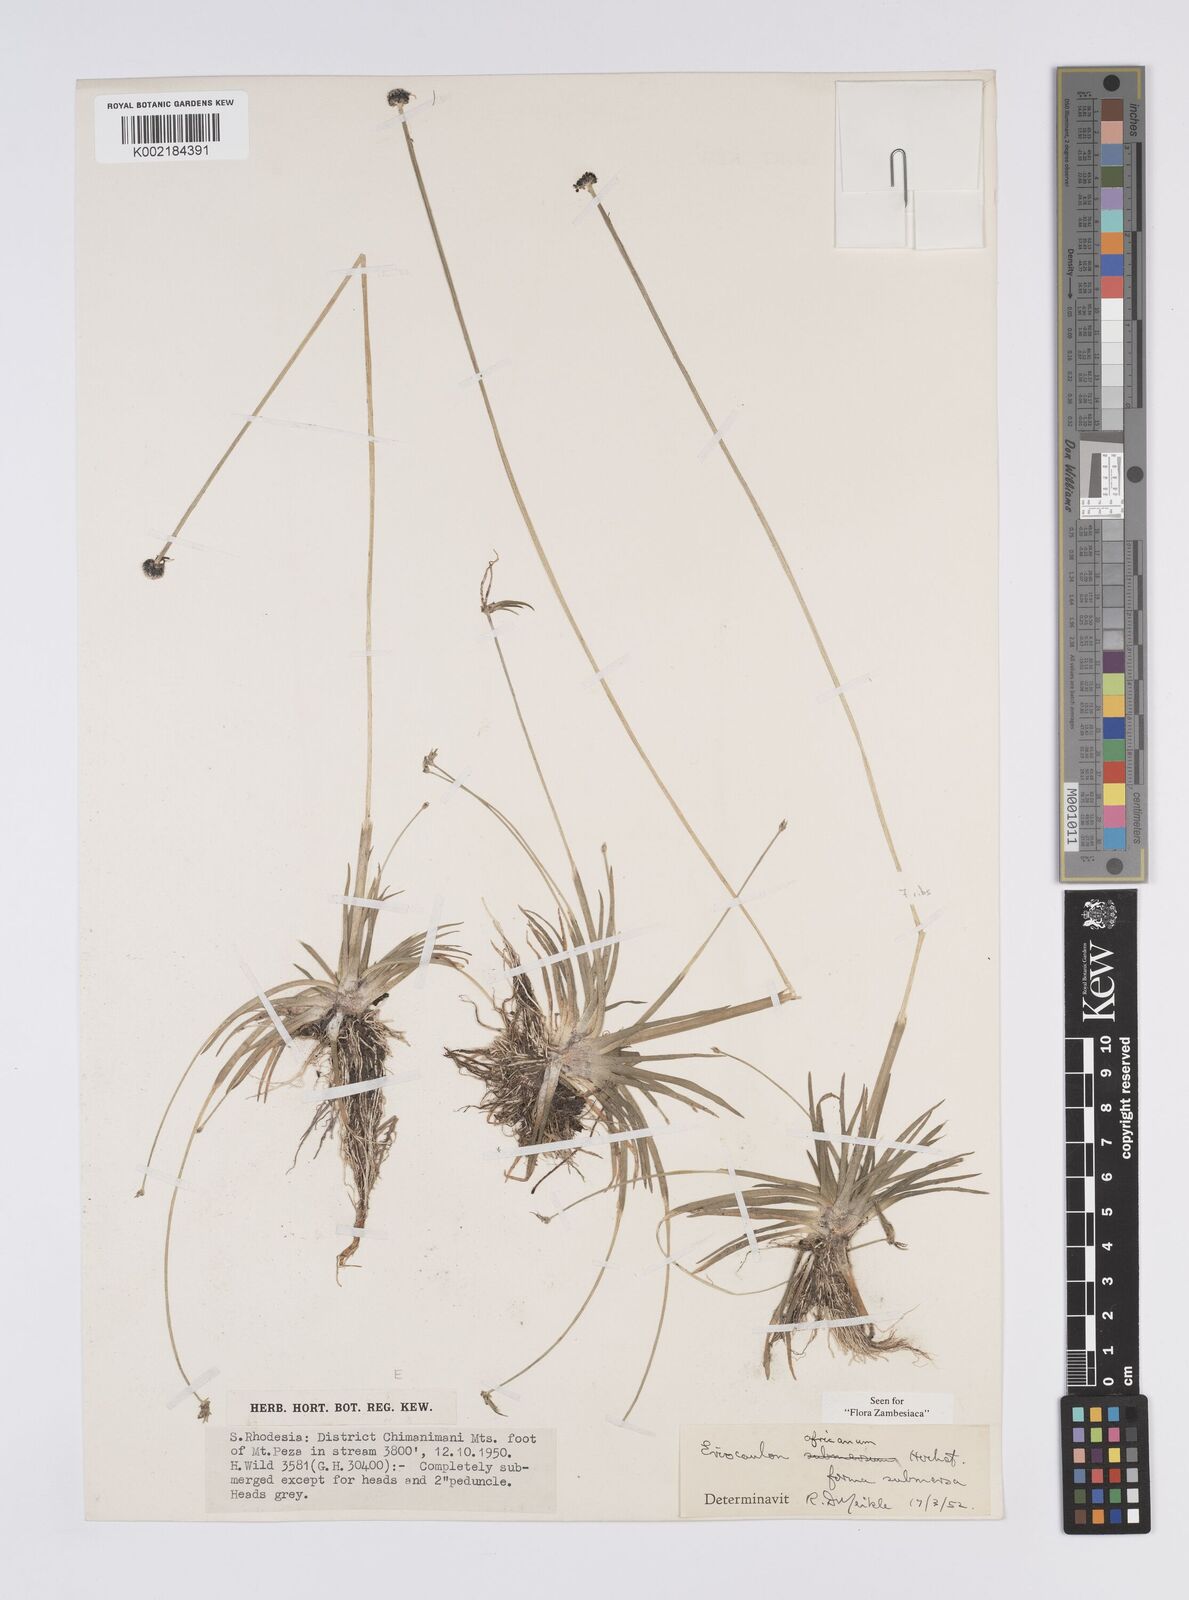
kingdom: Plantae
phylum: Tracheophyta
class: Liliopsida
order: Poales
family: Eriocaulaceae
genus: Eriocaulon
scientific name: Eriocaulon africanum
